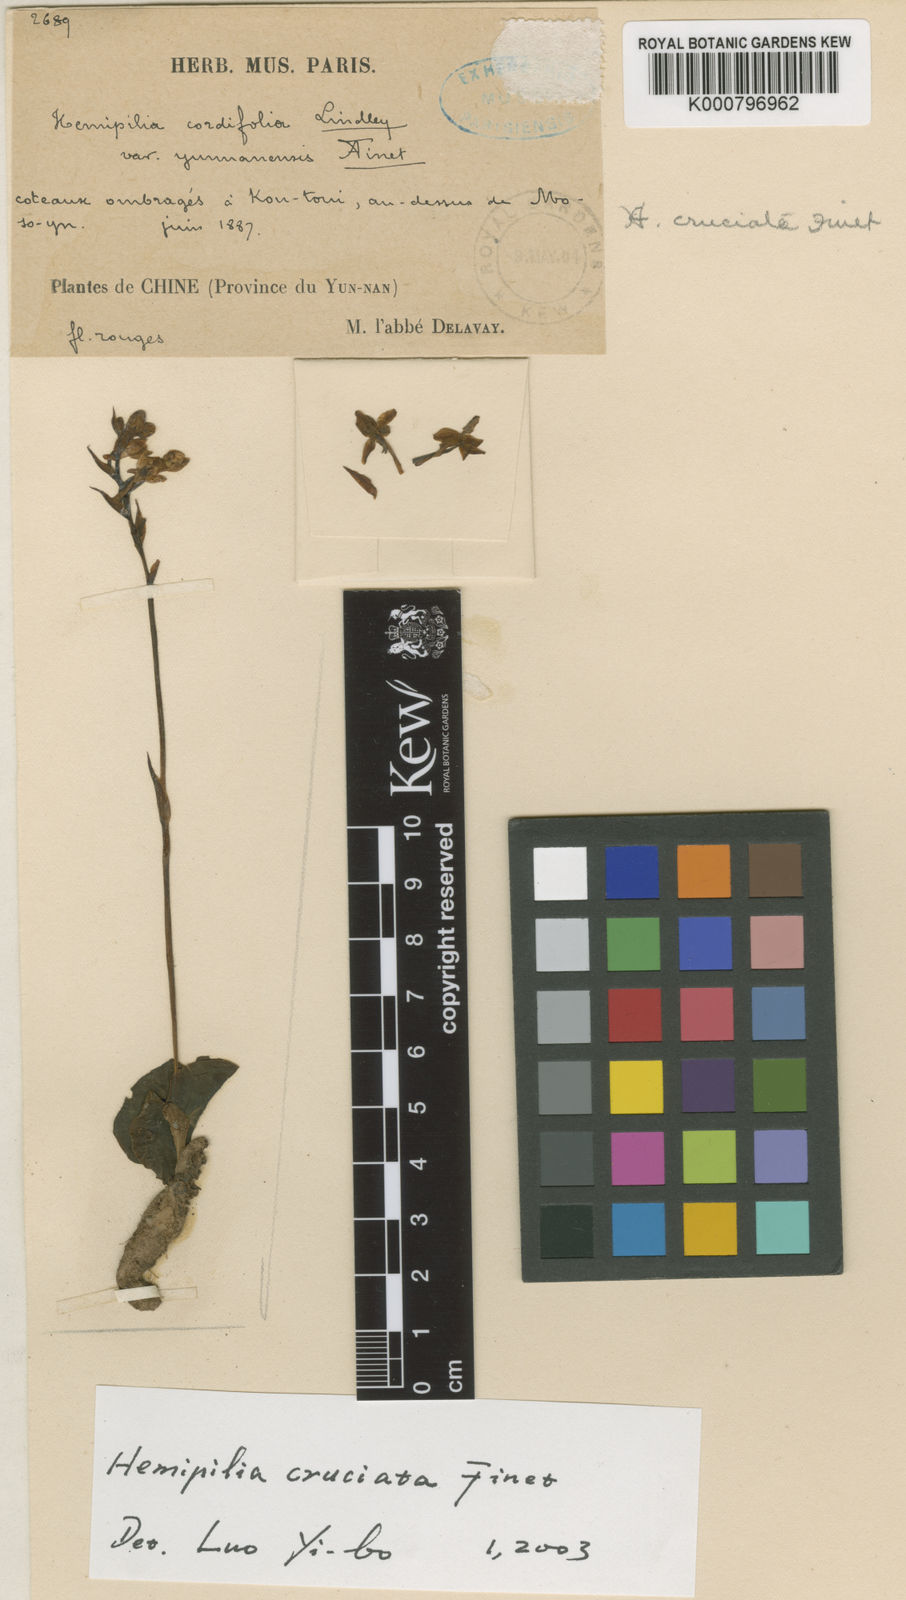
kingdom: Plantae
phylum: Tracheophyta
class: Liliopsida
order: Asparagales
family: Orchidaceae
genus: Hemipilia
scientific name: Hemipilia cordifolia
